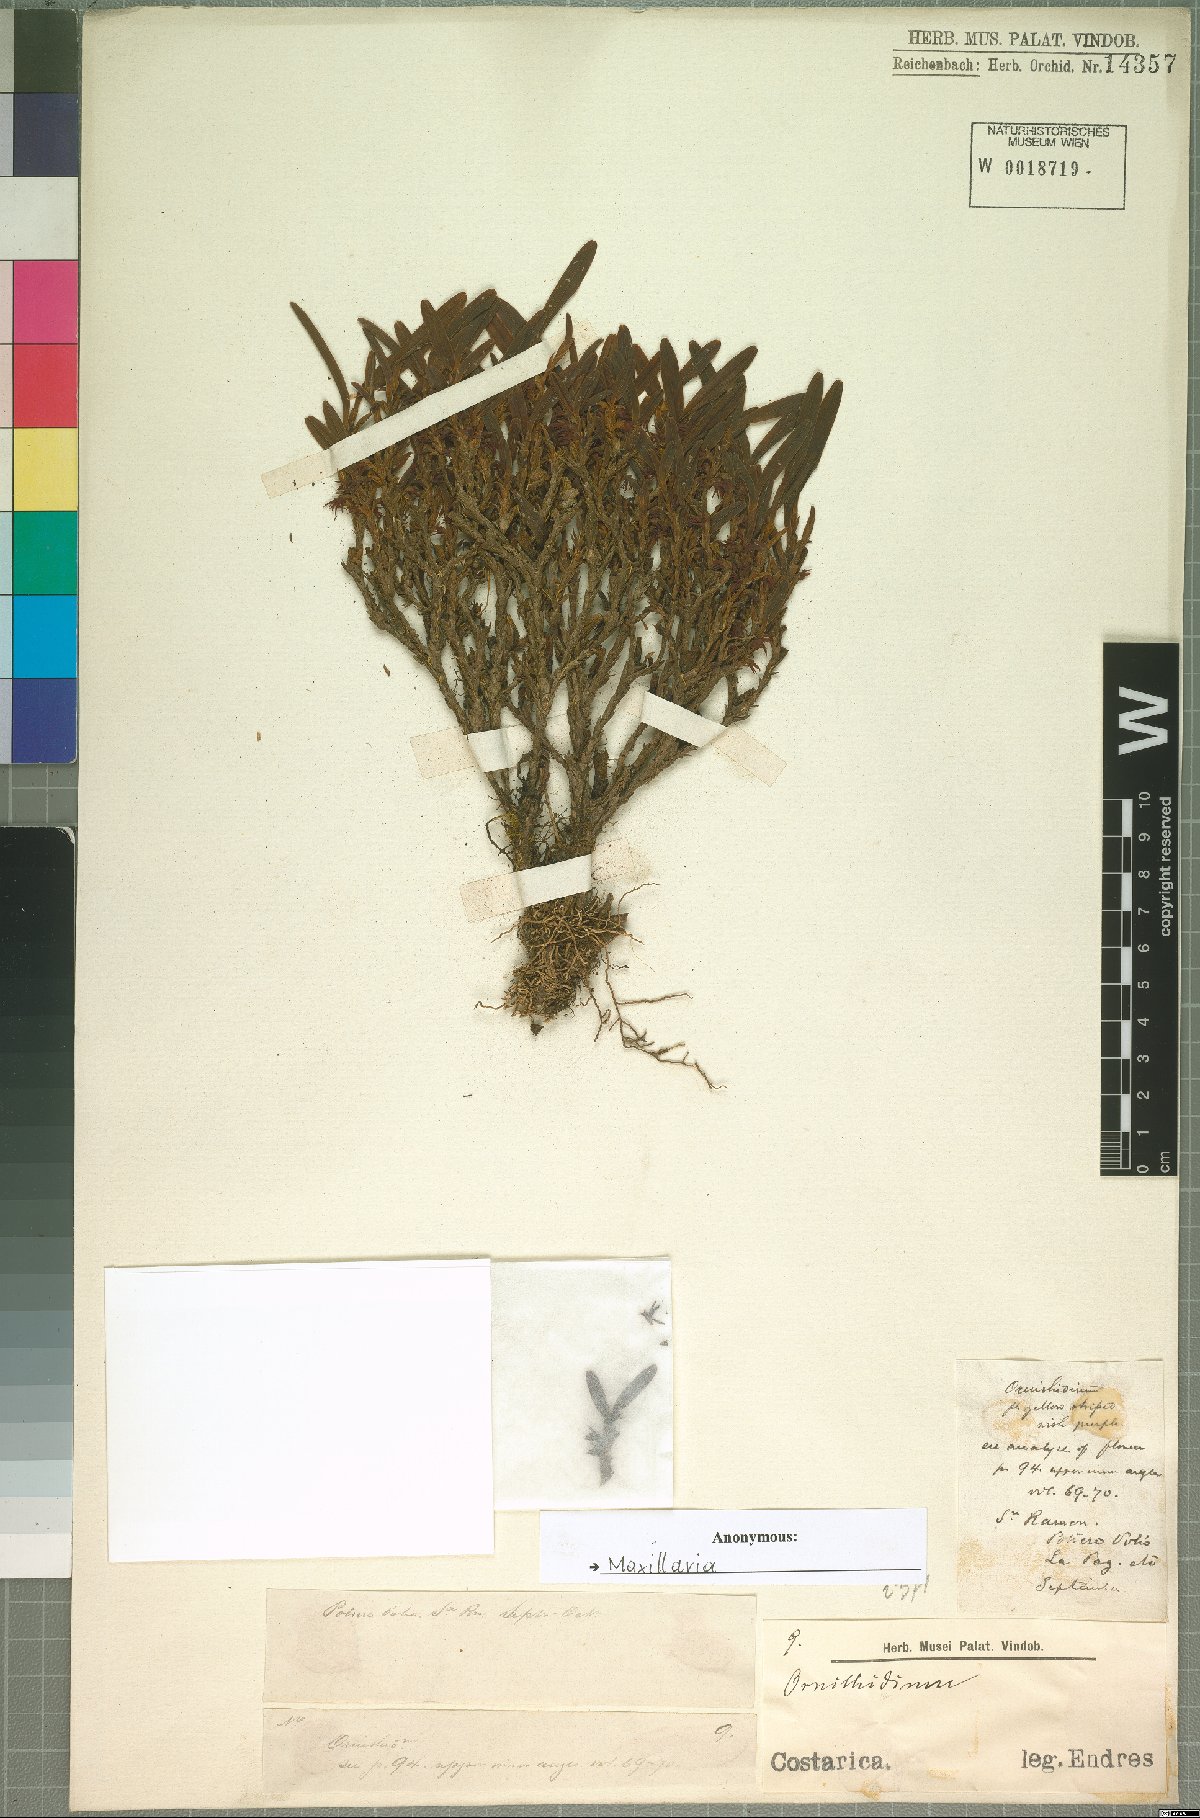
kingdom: Plantae
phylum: Tracheophyta
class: Liliopsida
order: Asparagales
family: Orchidaceae
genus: Maxillaria
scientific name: Maxillaria
